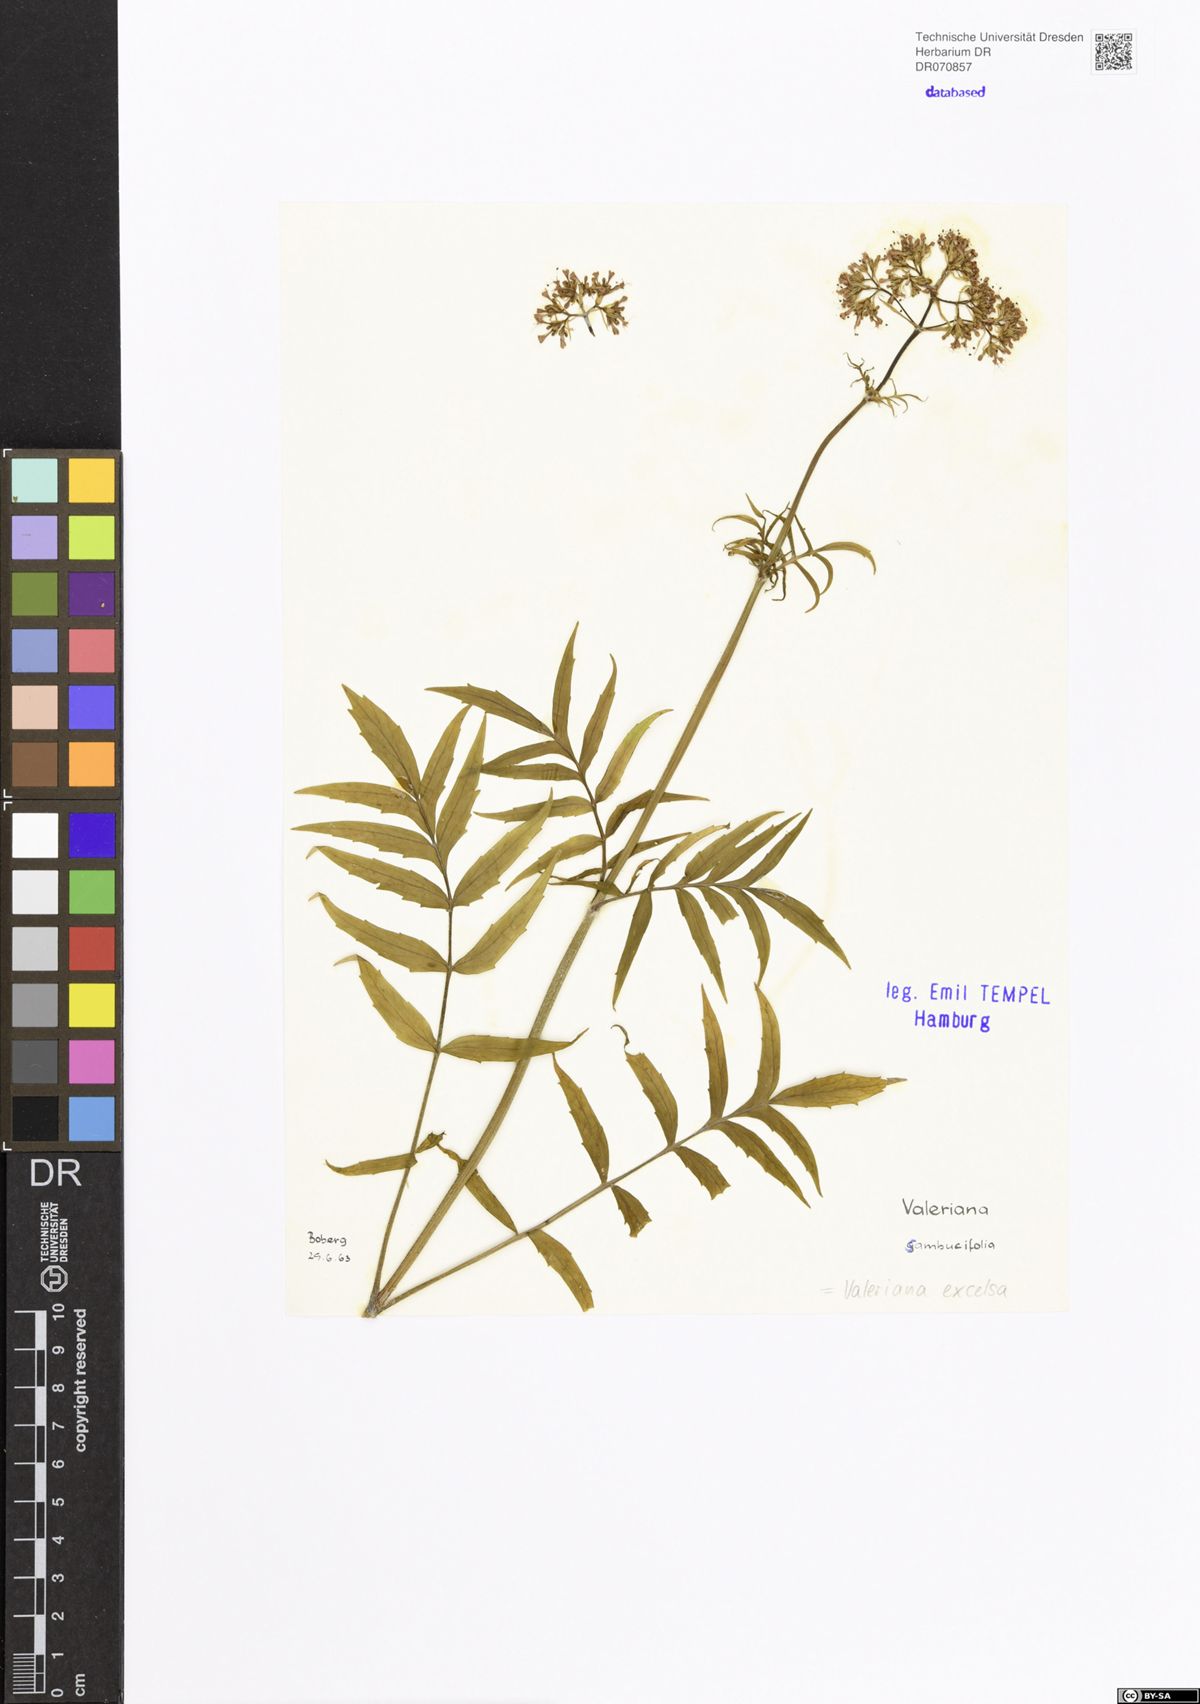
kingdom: Plantae
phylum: Tracheophyta
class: Magnoliopsida
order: Dipsacales
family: Caprifoliaceae
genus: Valeriana
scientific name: Valeriana excelsa
